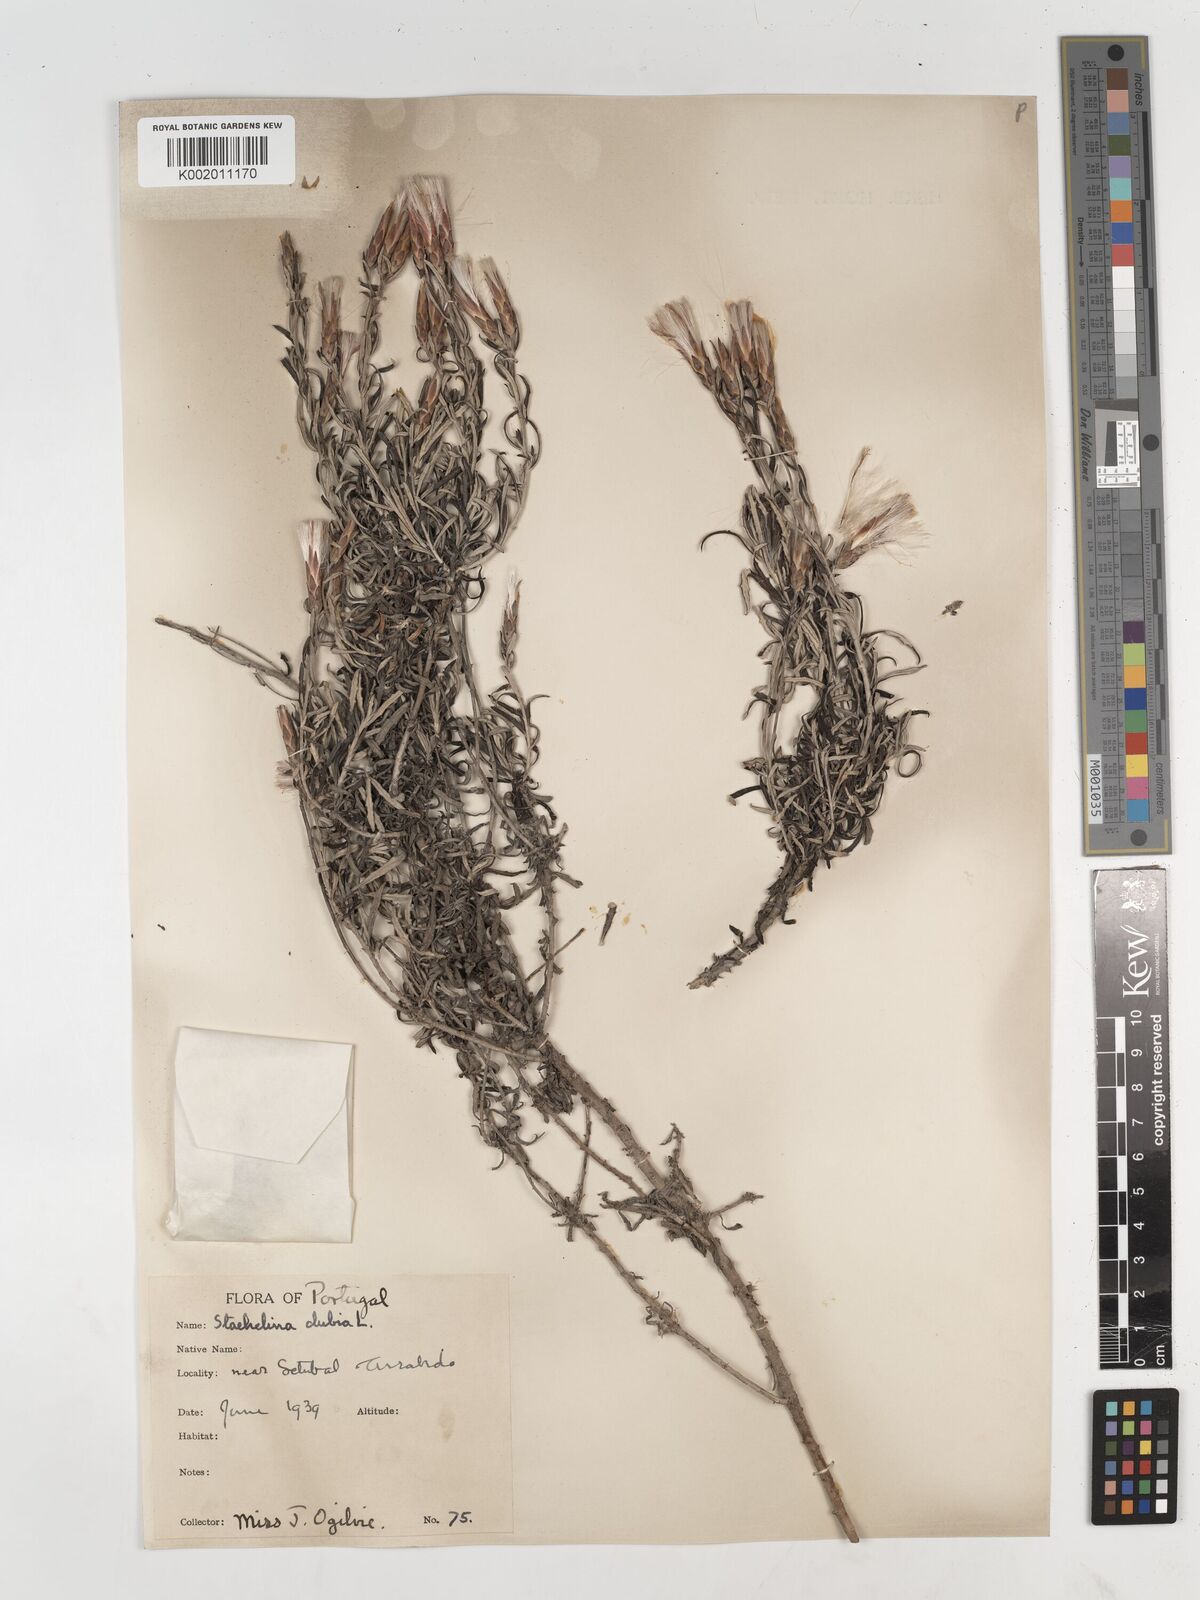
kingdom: Plantae
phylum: Tracheophyta
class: Magnoliopsida
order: Asterales
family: Asteraceae
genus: Staehelina
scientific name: Staehelina dubia
